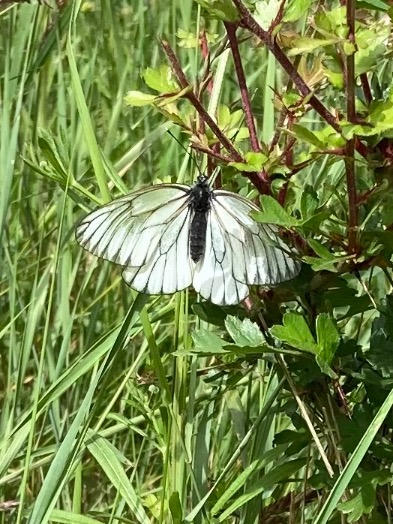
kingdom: Animalia
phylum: Arthropoda
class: Insecta
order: Lepidoptera
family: Pieridae
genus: Aporia
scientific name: Aporia crataegi
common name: Sortåret hvidvinge
